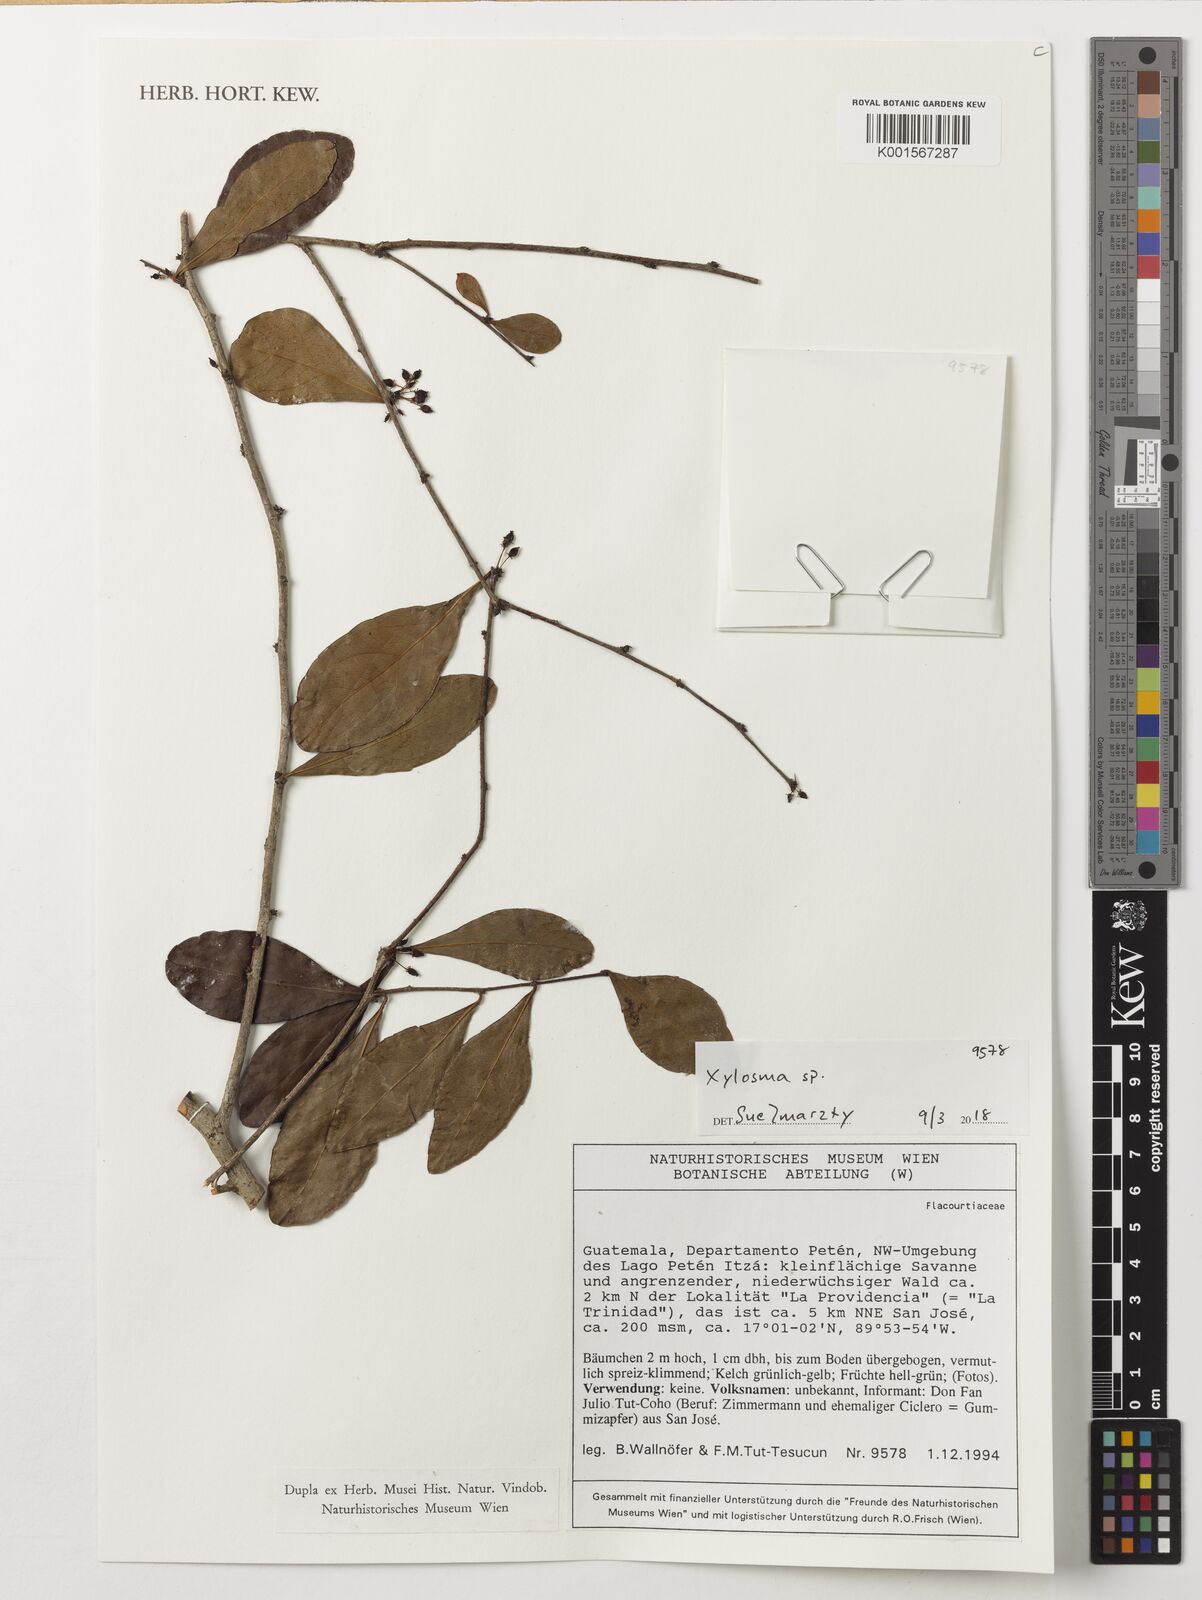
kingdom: Plantae
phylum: Tracheophyta
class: Magnoliopsida
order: Malpighiales
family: Salicaceae
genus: Xylosma
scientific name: Xylosma
